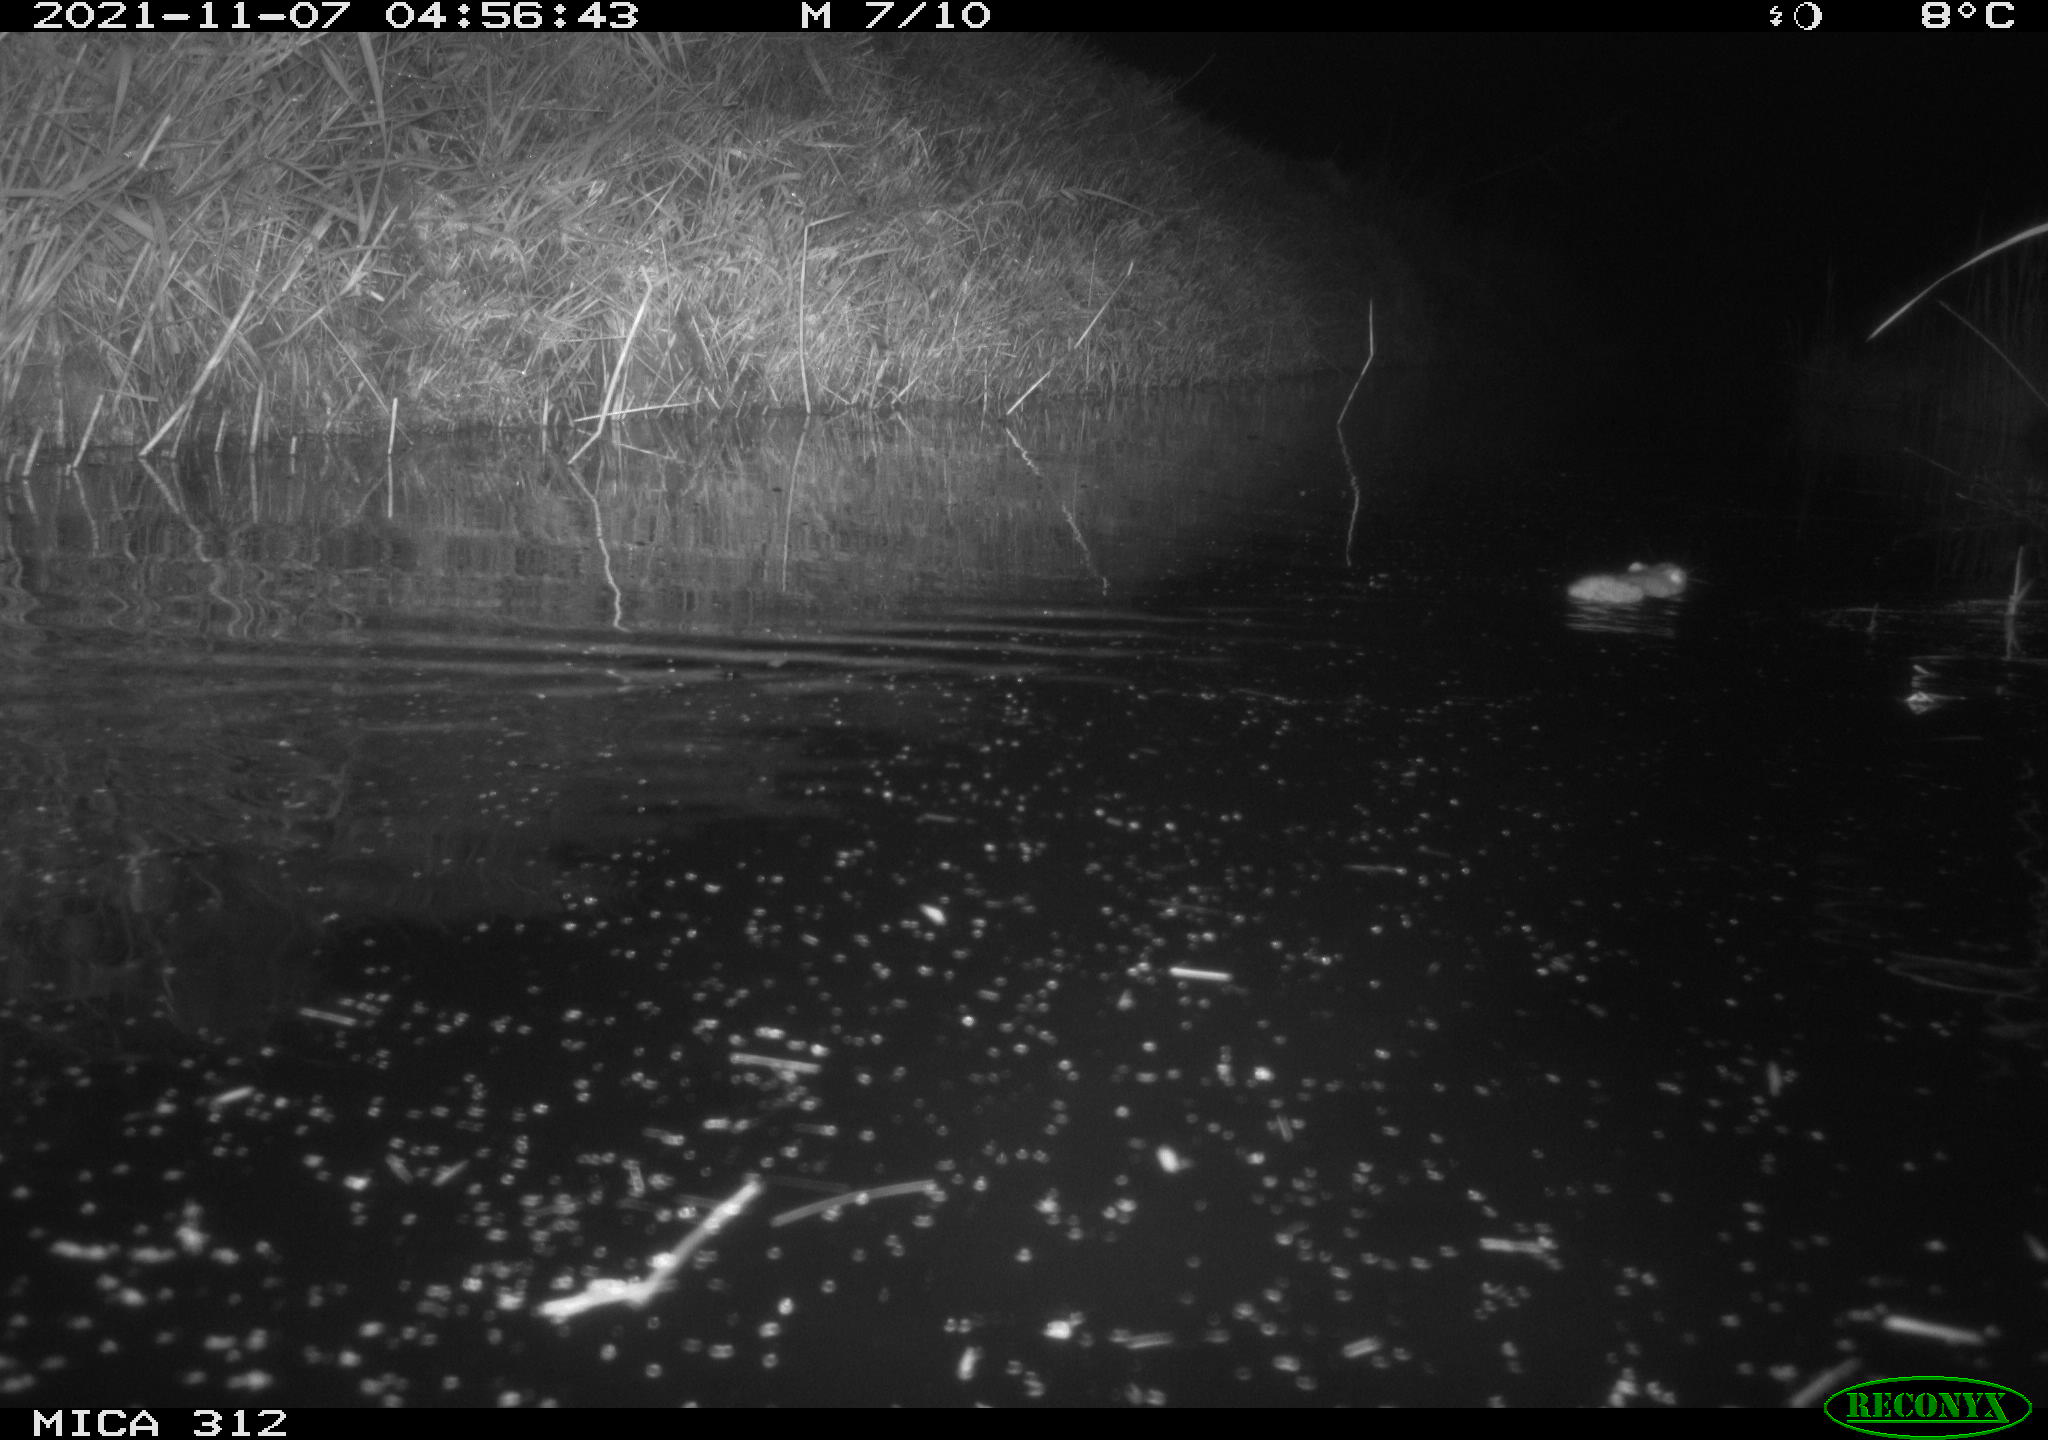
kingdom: Animalia
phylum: Chordata
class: Mammalia
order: Rodentia
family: Muridae
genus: Rattus
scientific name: Rattus norvegicus
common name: Brown rat
